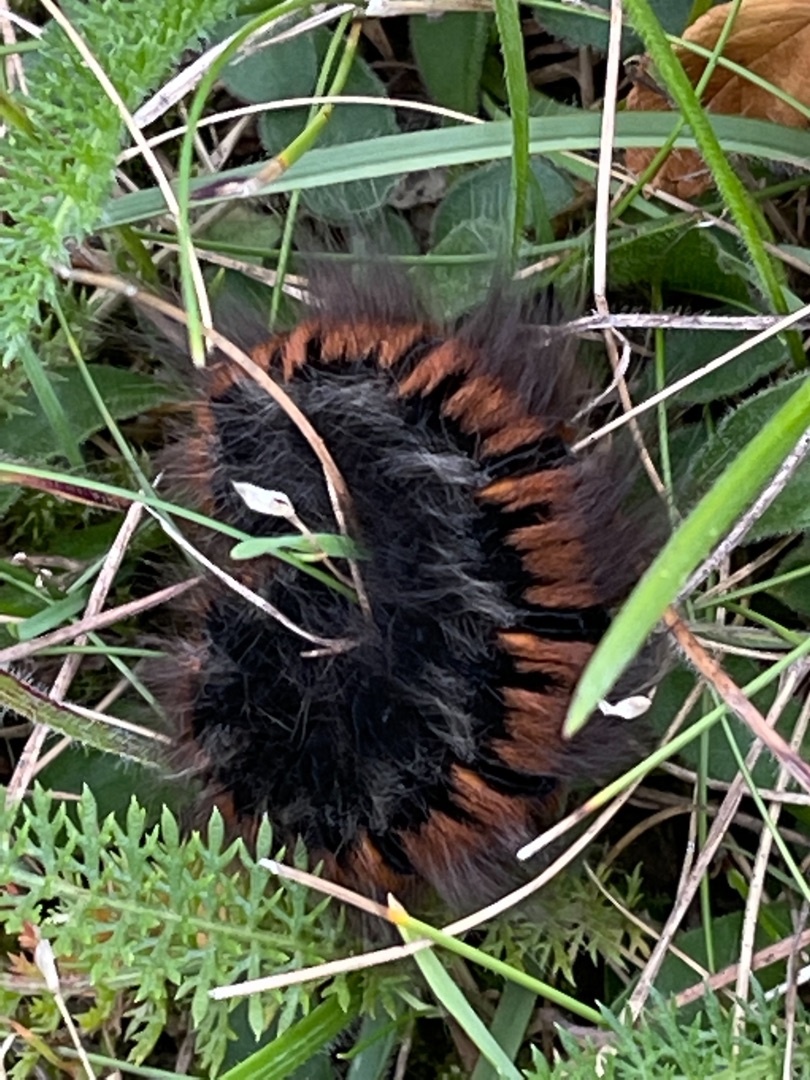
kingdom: Animalia
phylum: Arthropoda
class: Insecta
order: Lepidoptera
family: Lasiocampidae
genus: Macrothylacia
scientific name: Macrothylacia rubi
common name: Brombærspinder
